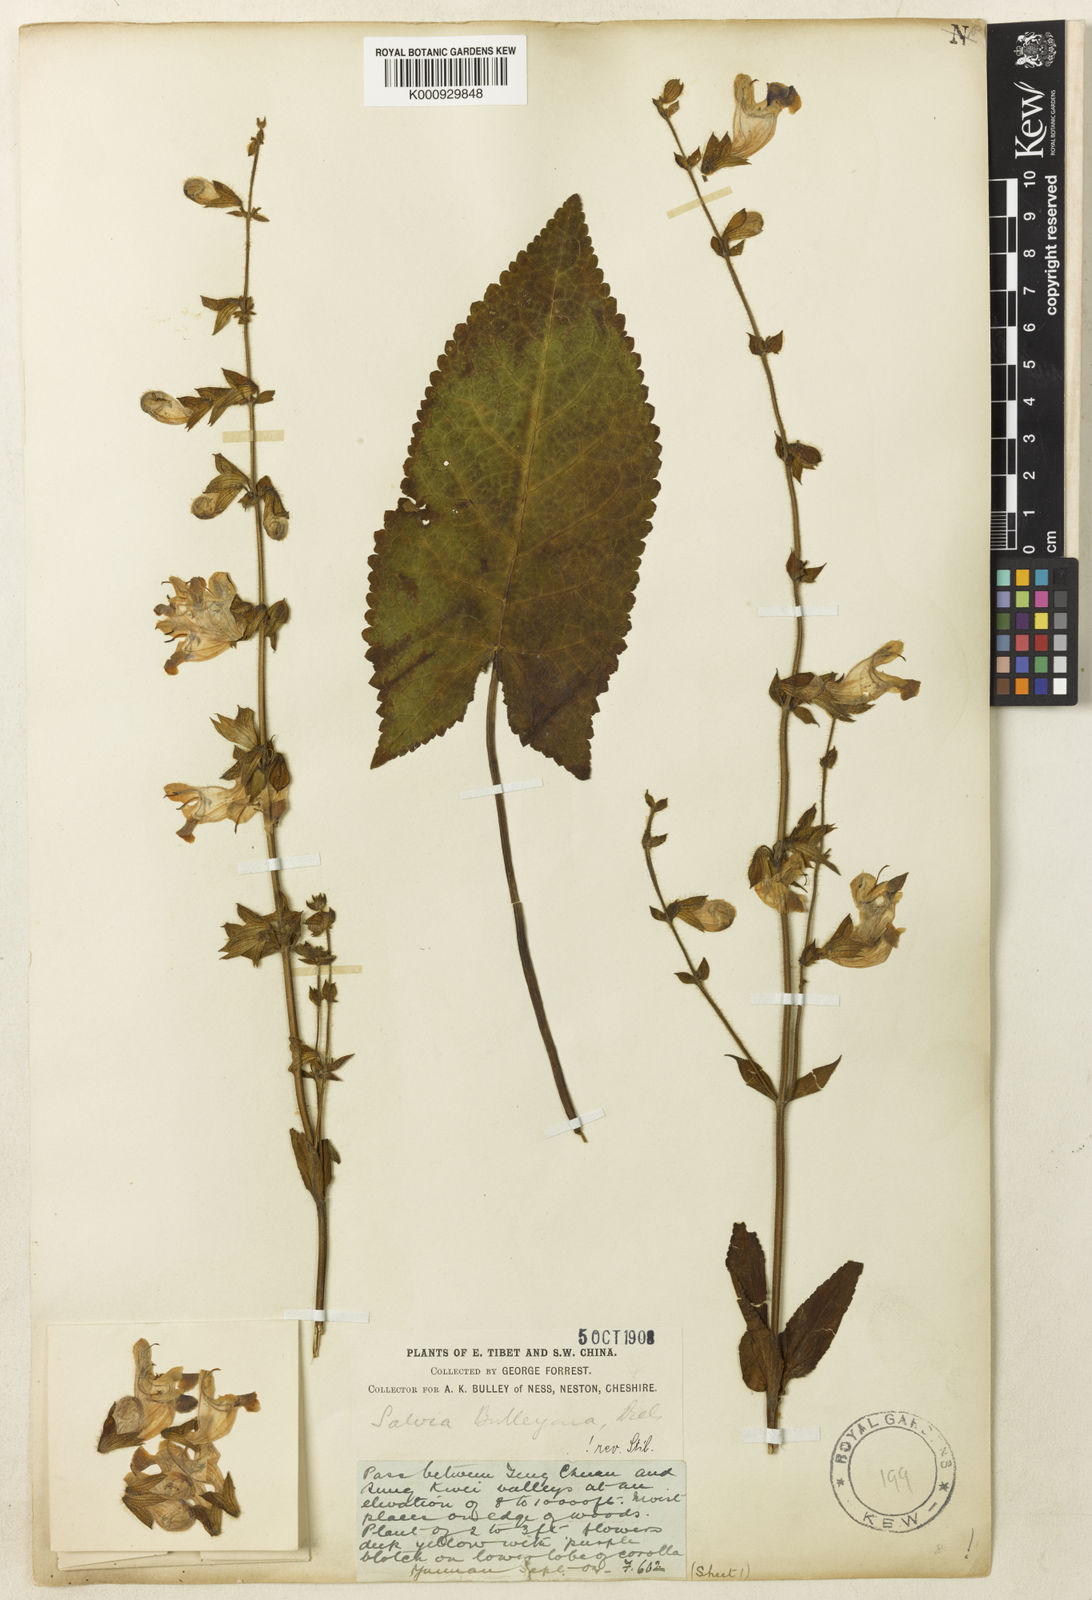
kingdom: Plantae
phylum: Tracheophyta
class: Magnoliopsida
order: Lamiales
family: Lamiaceae
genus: Salvia
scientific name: Salvia flava
